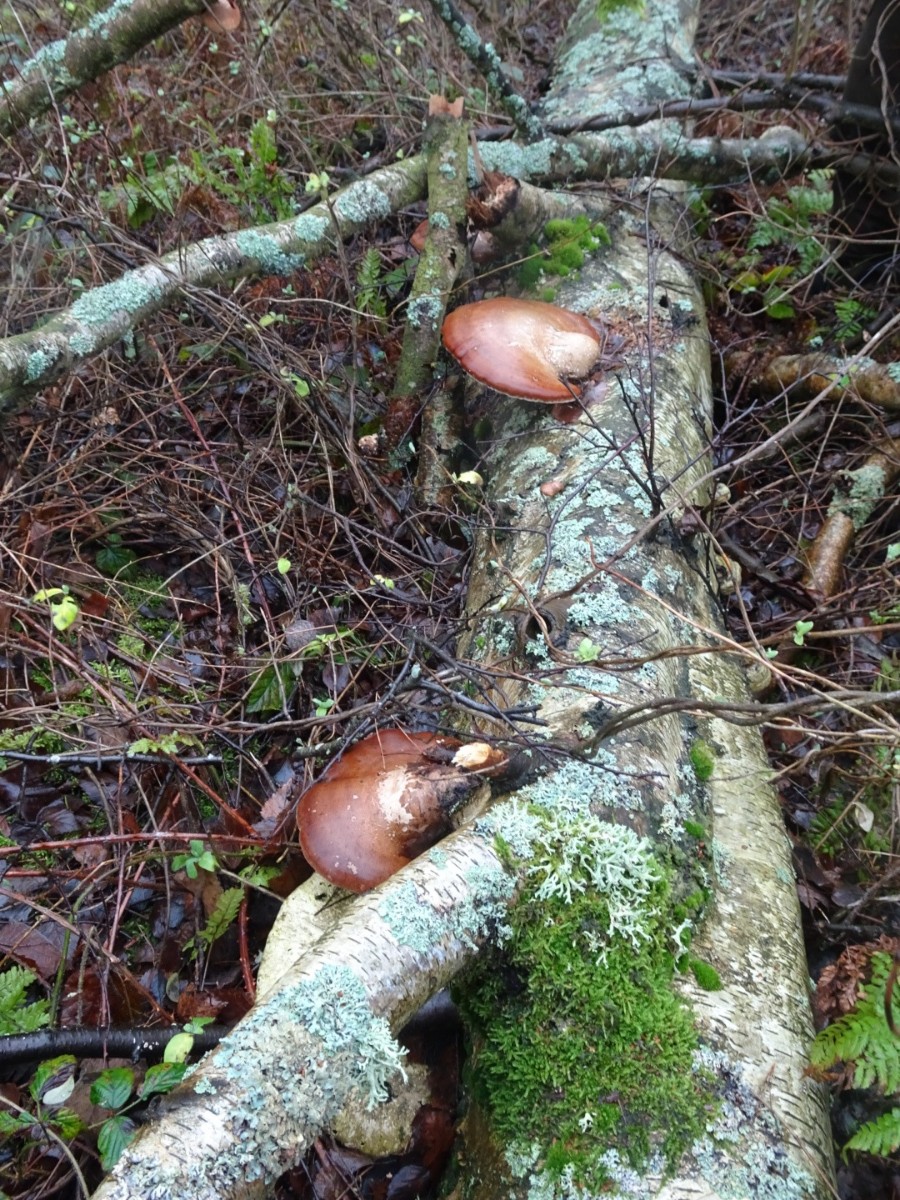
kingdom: Fungi
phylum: Basidiomycota
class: Agaricomycetes
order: Polyporales
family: Fomitopsidaceae
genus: Fomitopsis
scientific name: Fomitopsis betulina
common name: birkeporesvamp
